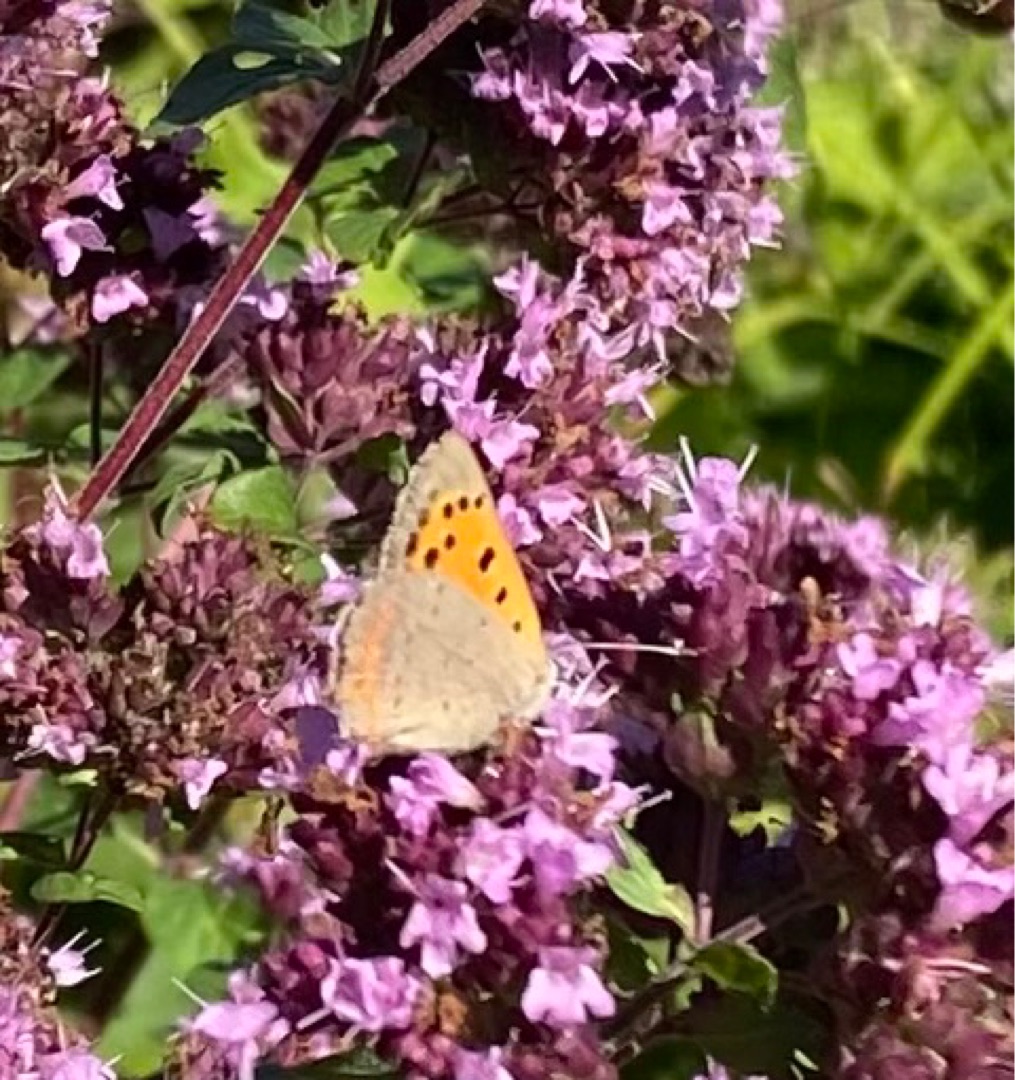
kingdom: Animalia
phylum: Arthropoda
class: Insecta
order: Lepidoptera
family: Lycaenidae
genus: Lycaena
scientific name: Lycaena phlaeas
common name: Lille ildfugl
